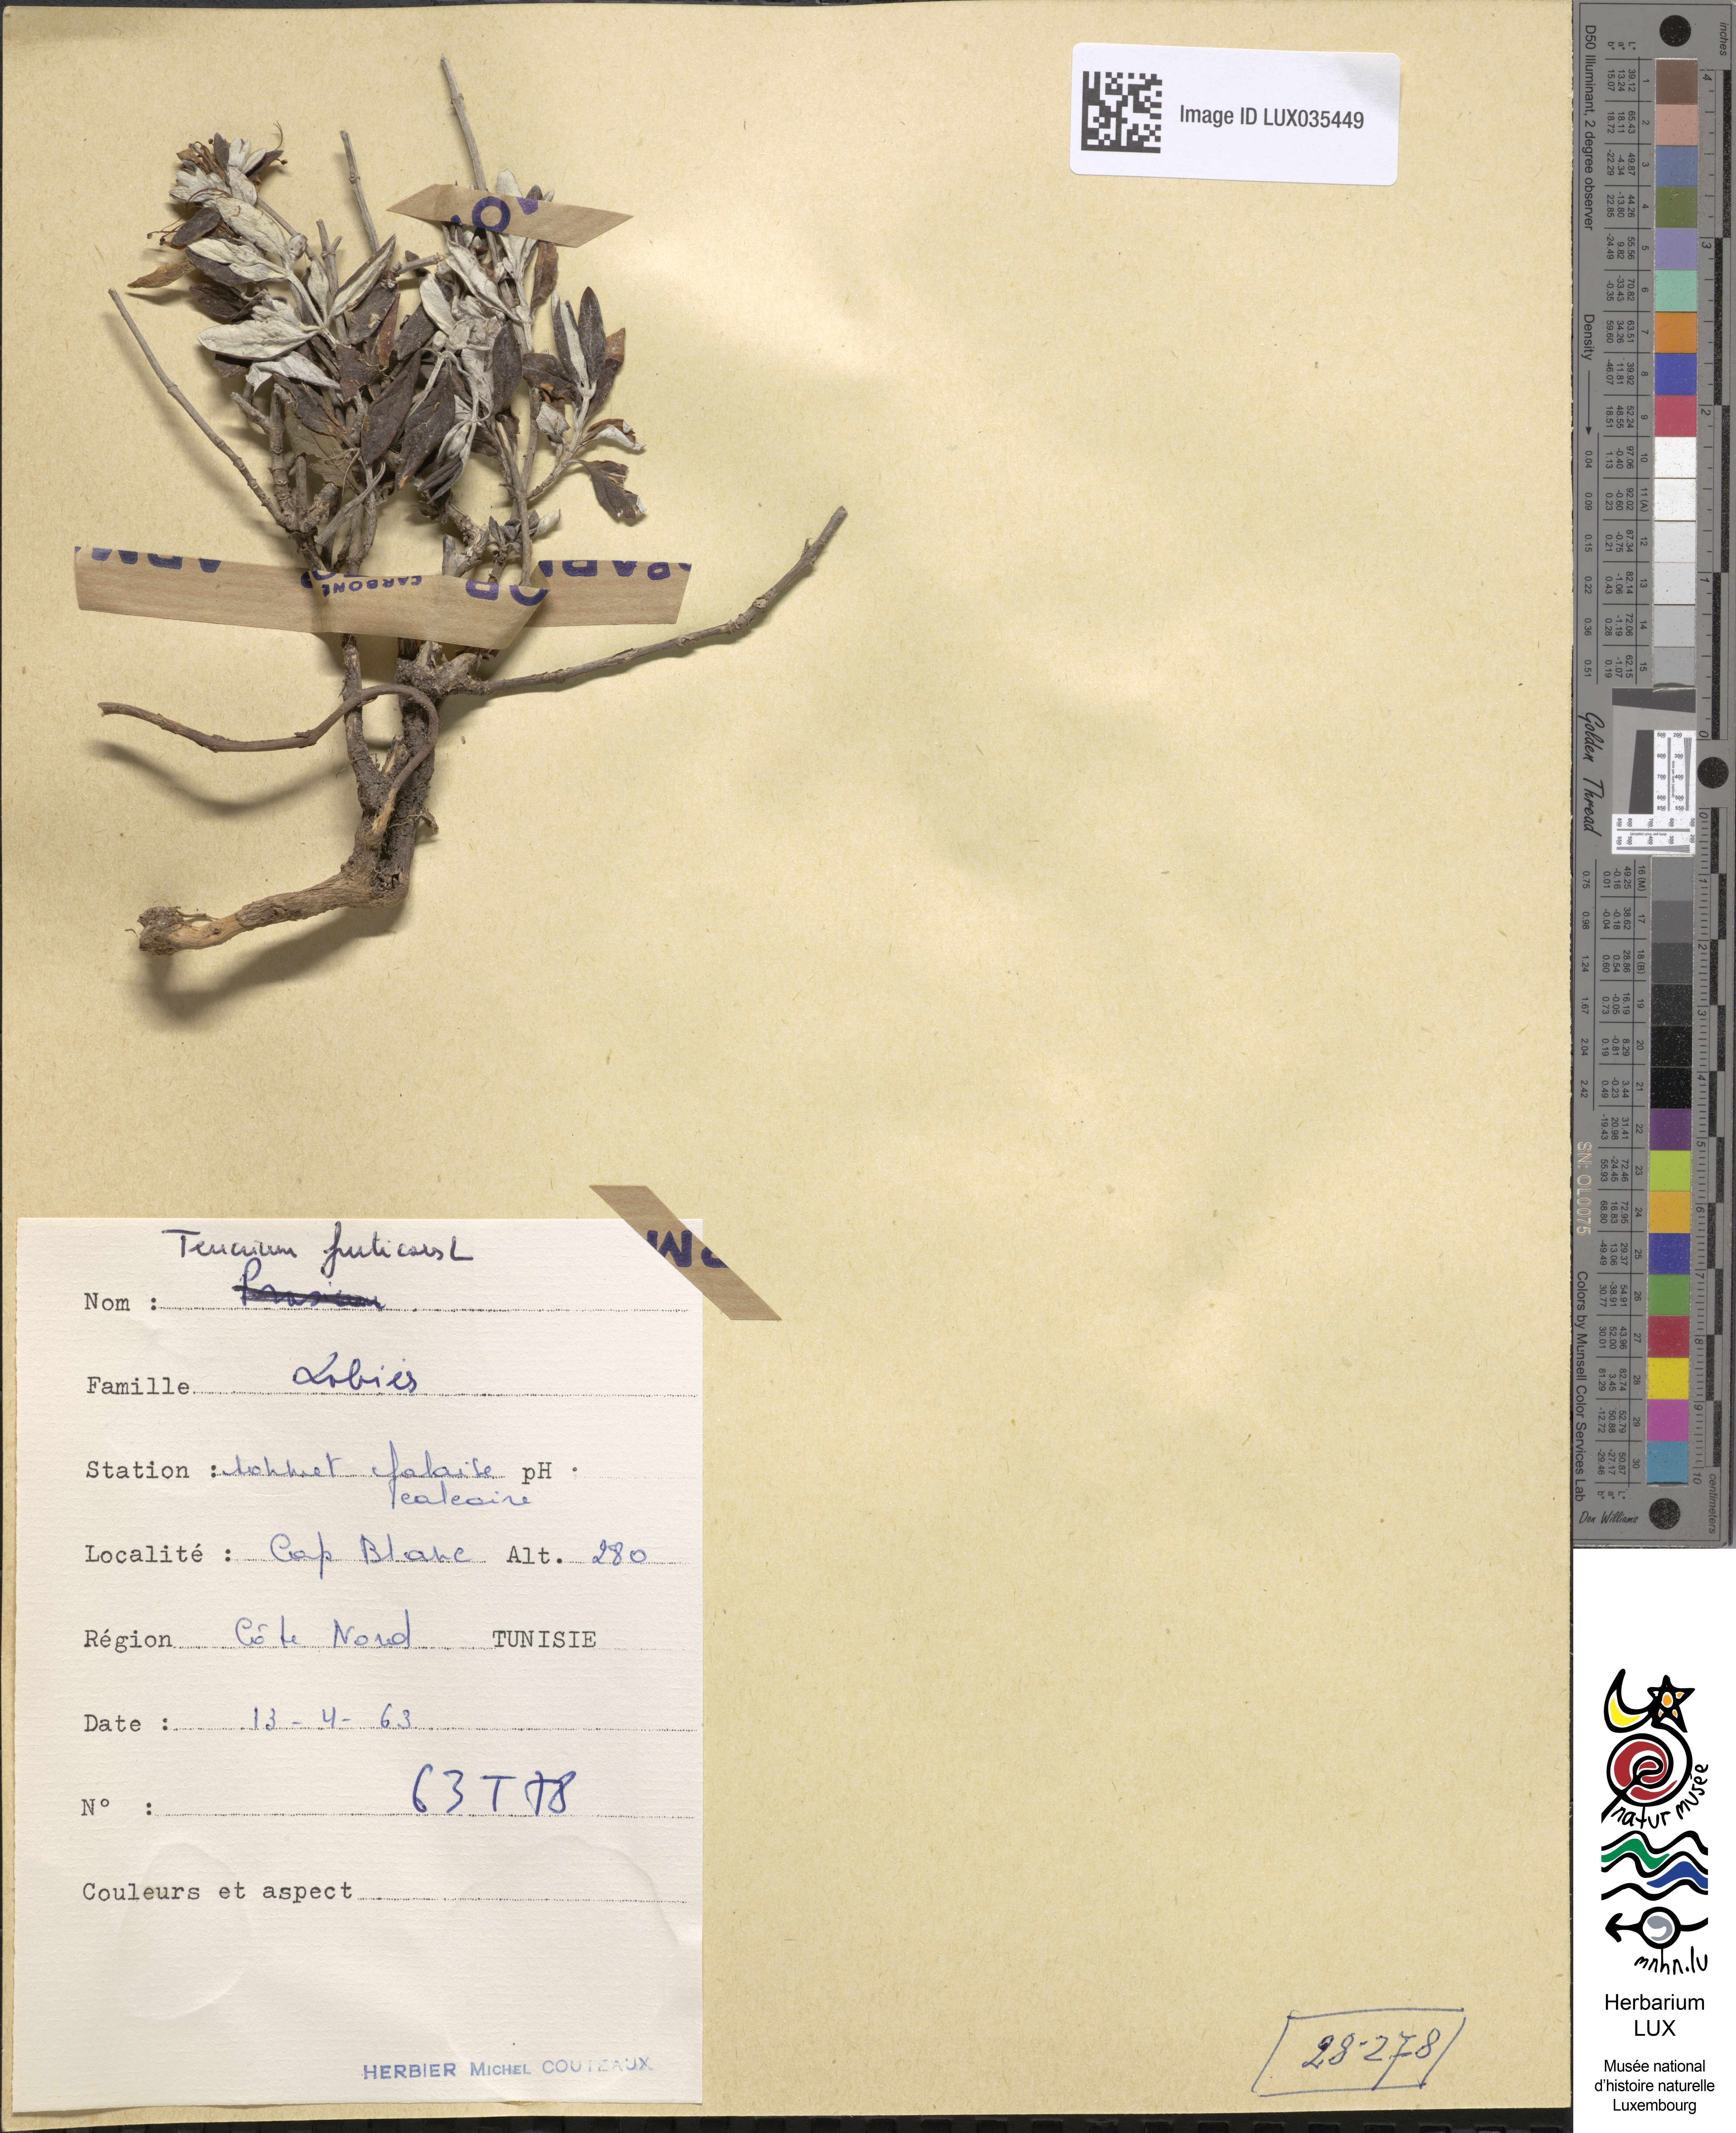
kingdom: Plantae
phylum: Tracheophyta
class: Magnoliopsida
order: Lamiales
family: Lamiaceae
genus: Teucrium
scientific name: Teucrium fruticans
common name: Shrubby germander
